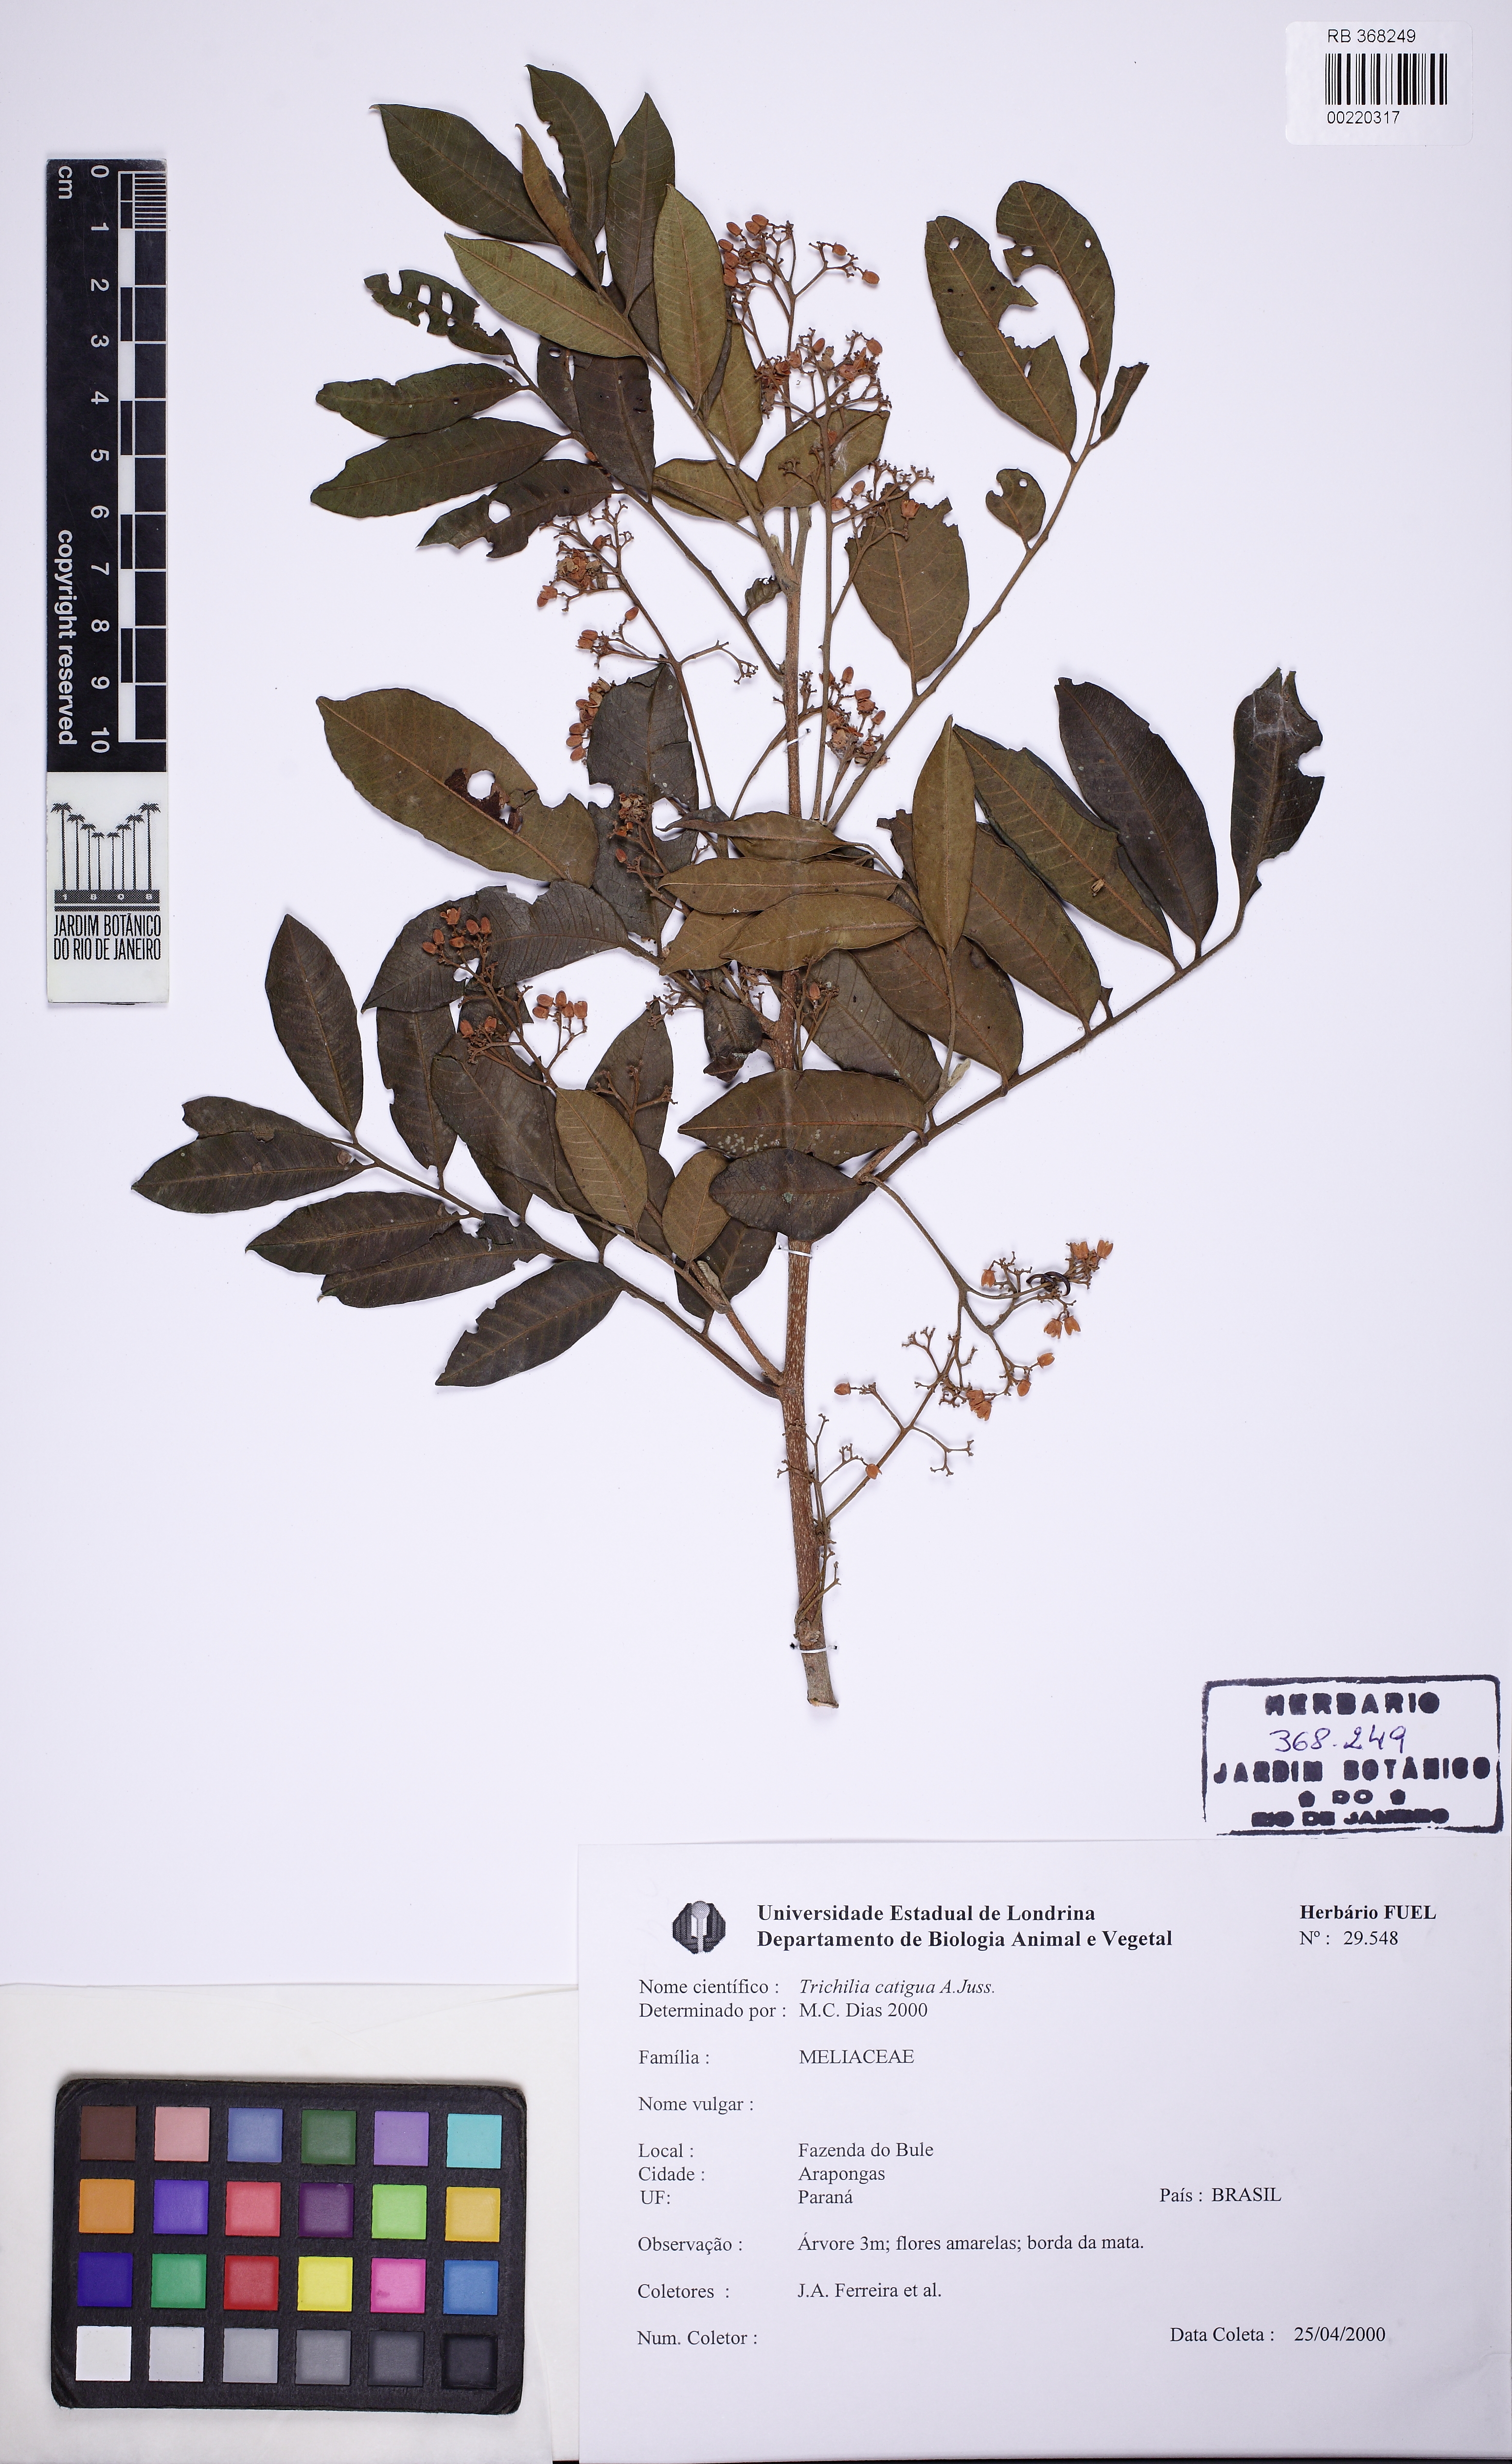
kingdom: Plantae
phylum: Tracheophyta
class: Magnoliopsida
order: Sapindales
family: Meliaceae
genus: Trichilia
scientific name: Trichilia catigua
